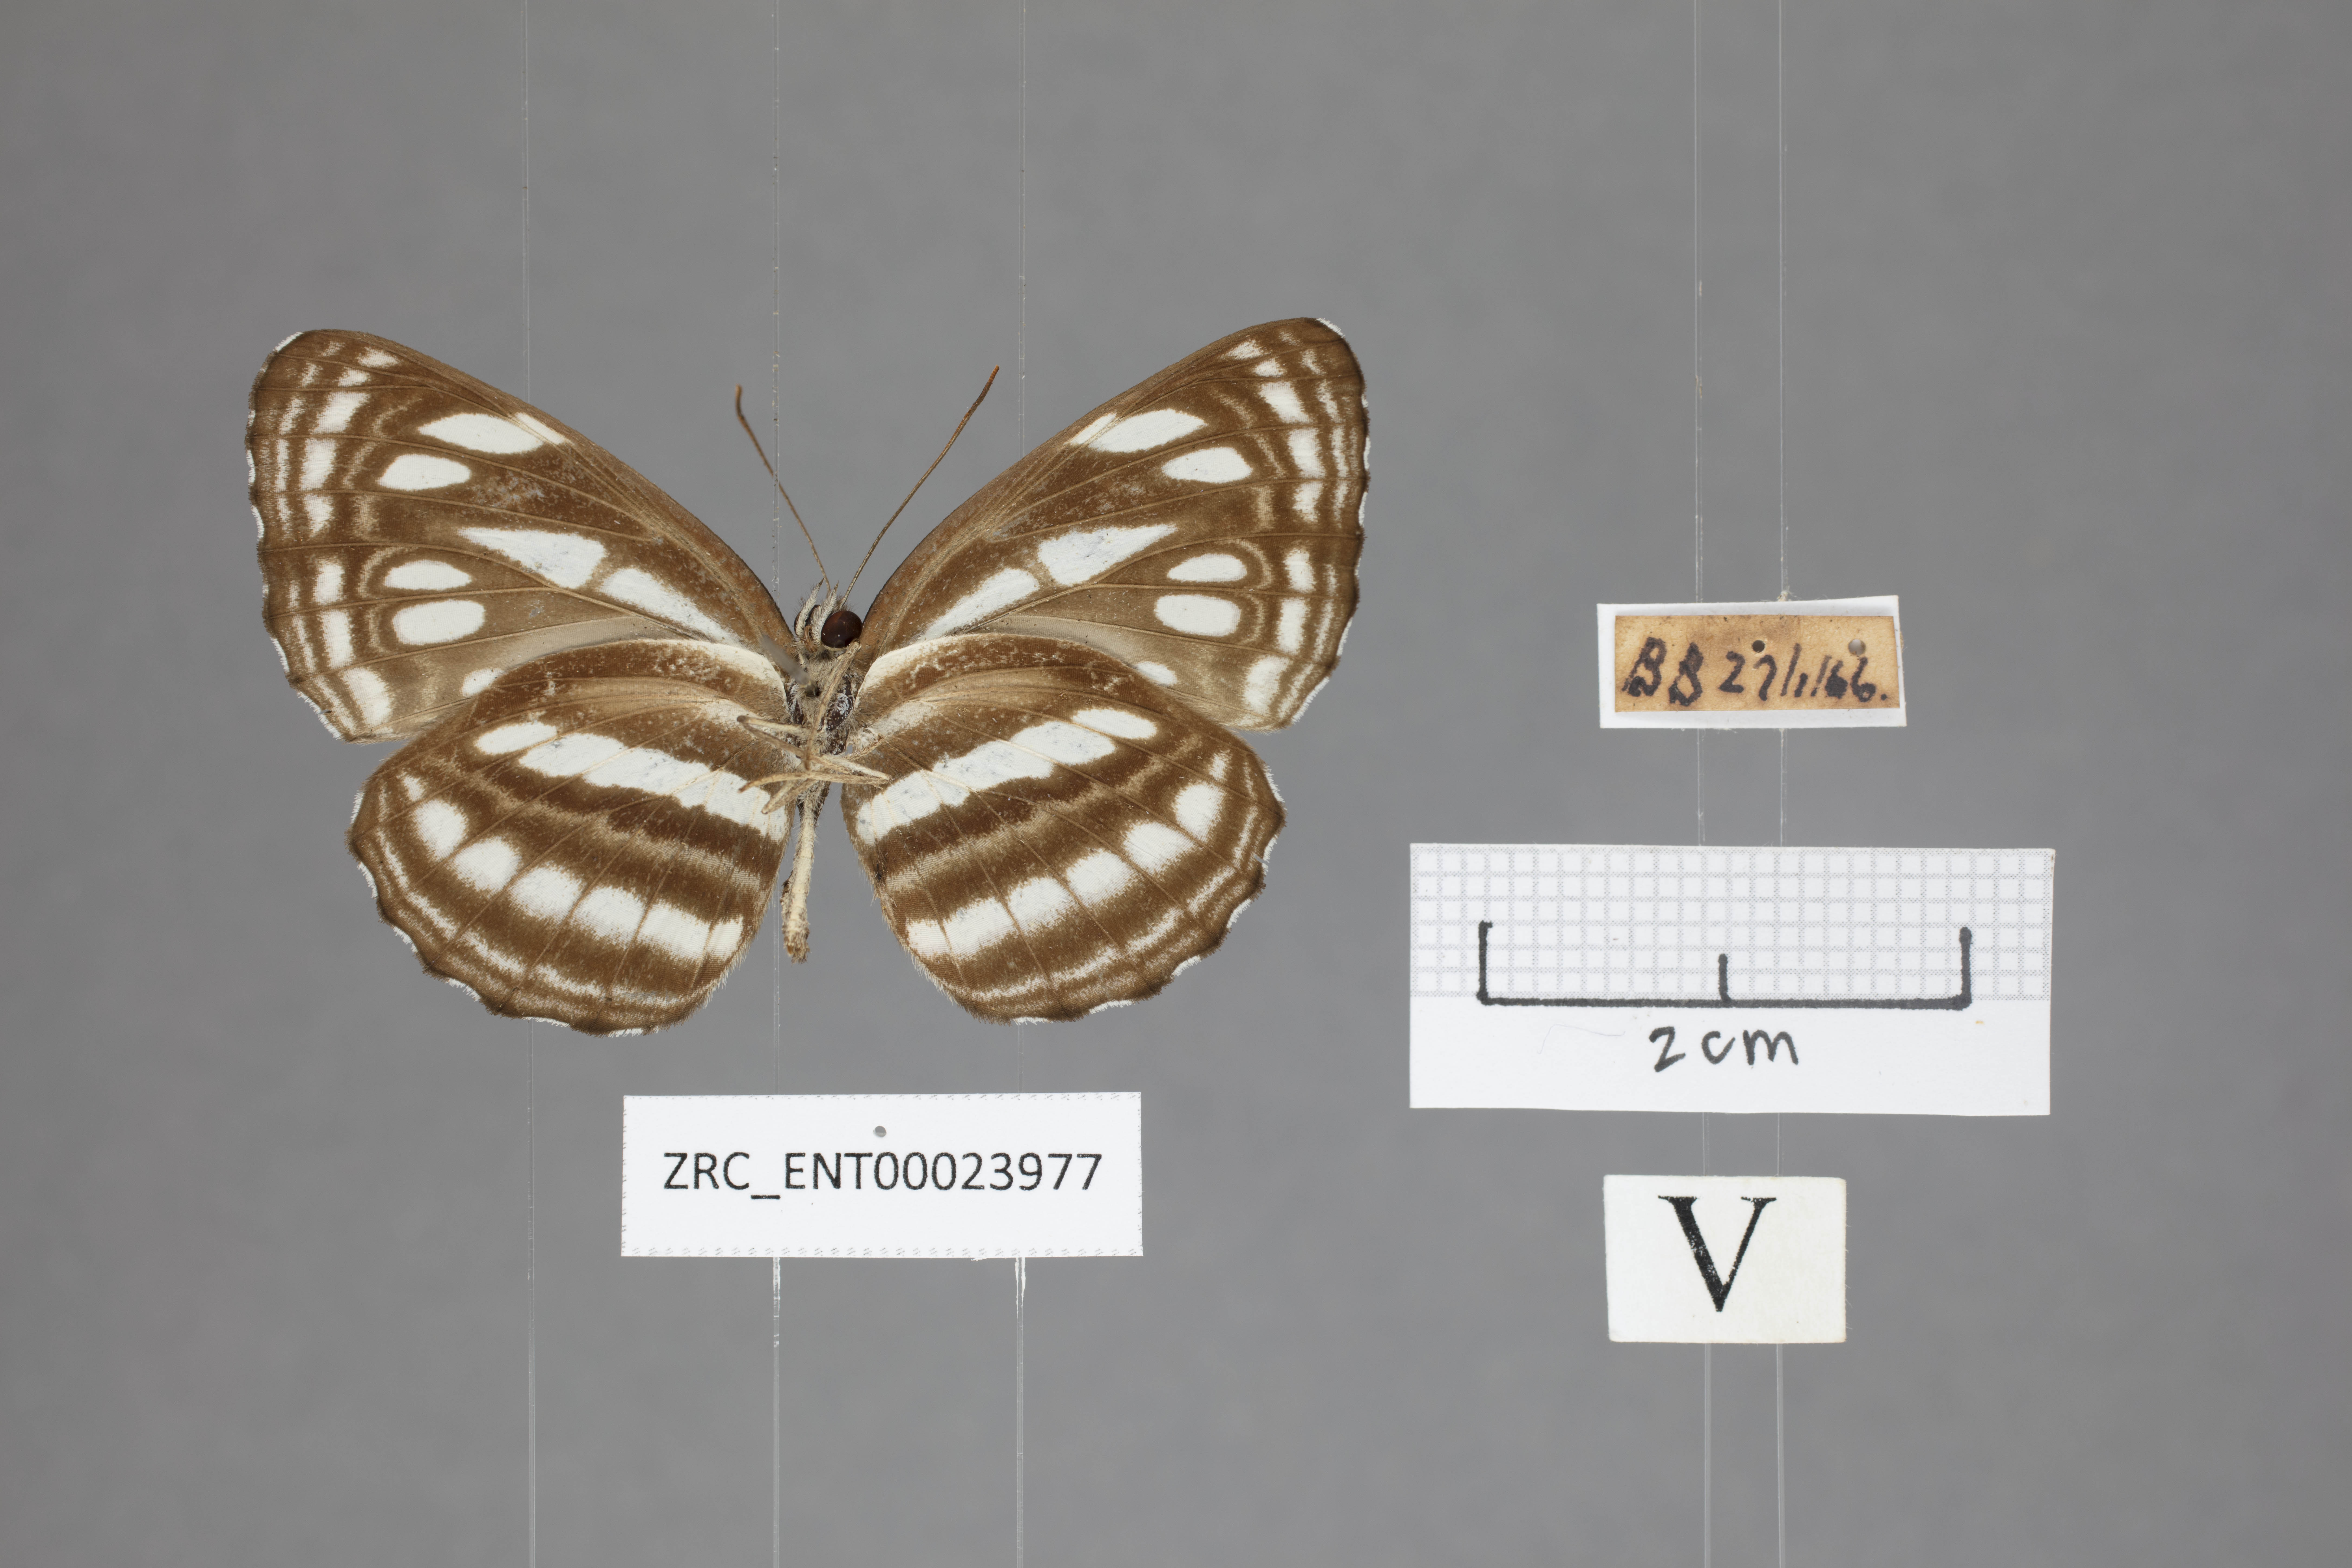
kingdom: Animalia
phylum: Arthropoda
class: Insecta
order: Lepidoptera
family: Nymphalidae
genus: Neptis
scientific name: Neptis duryodana
